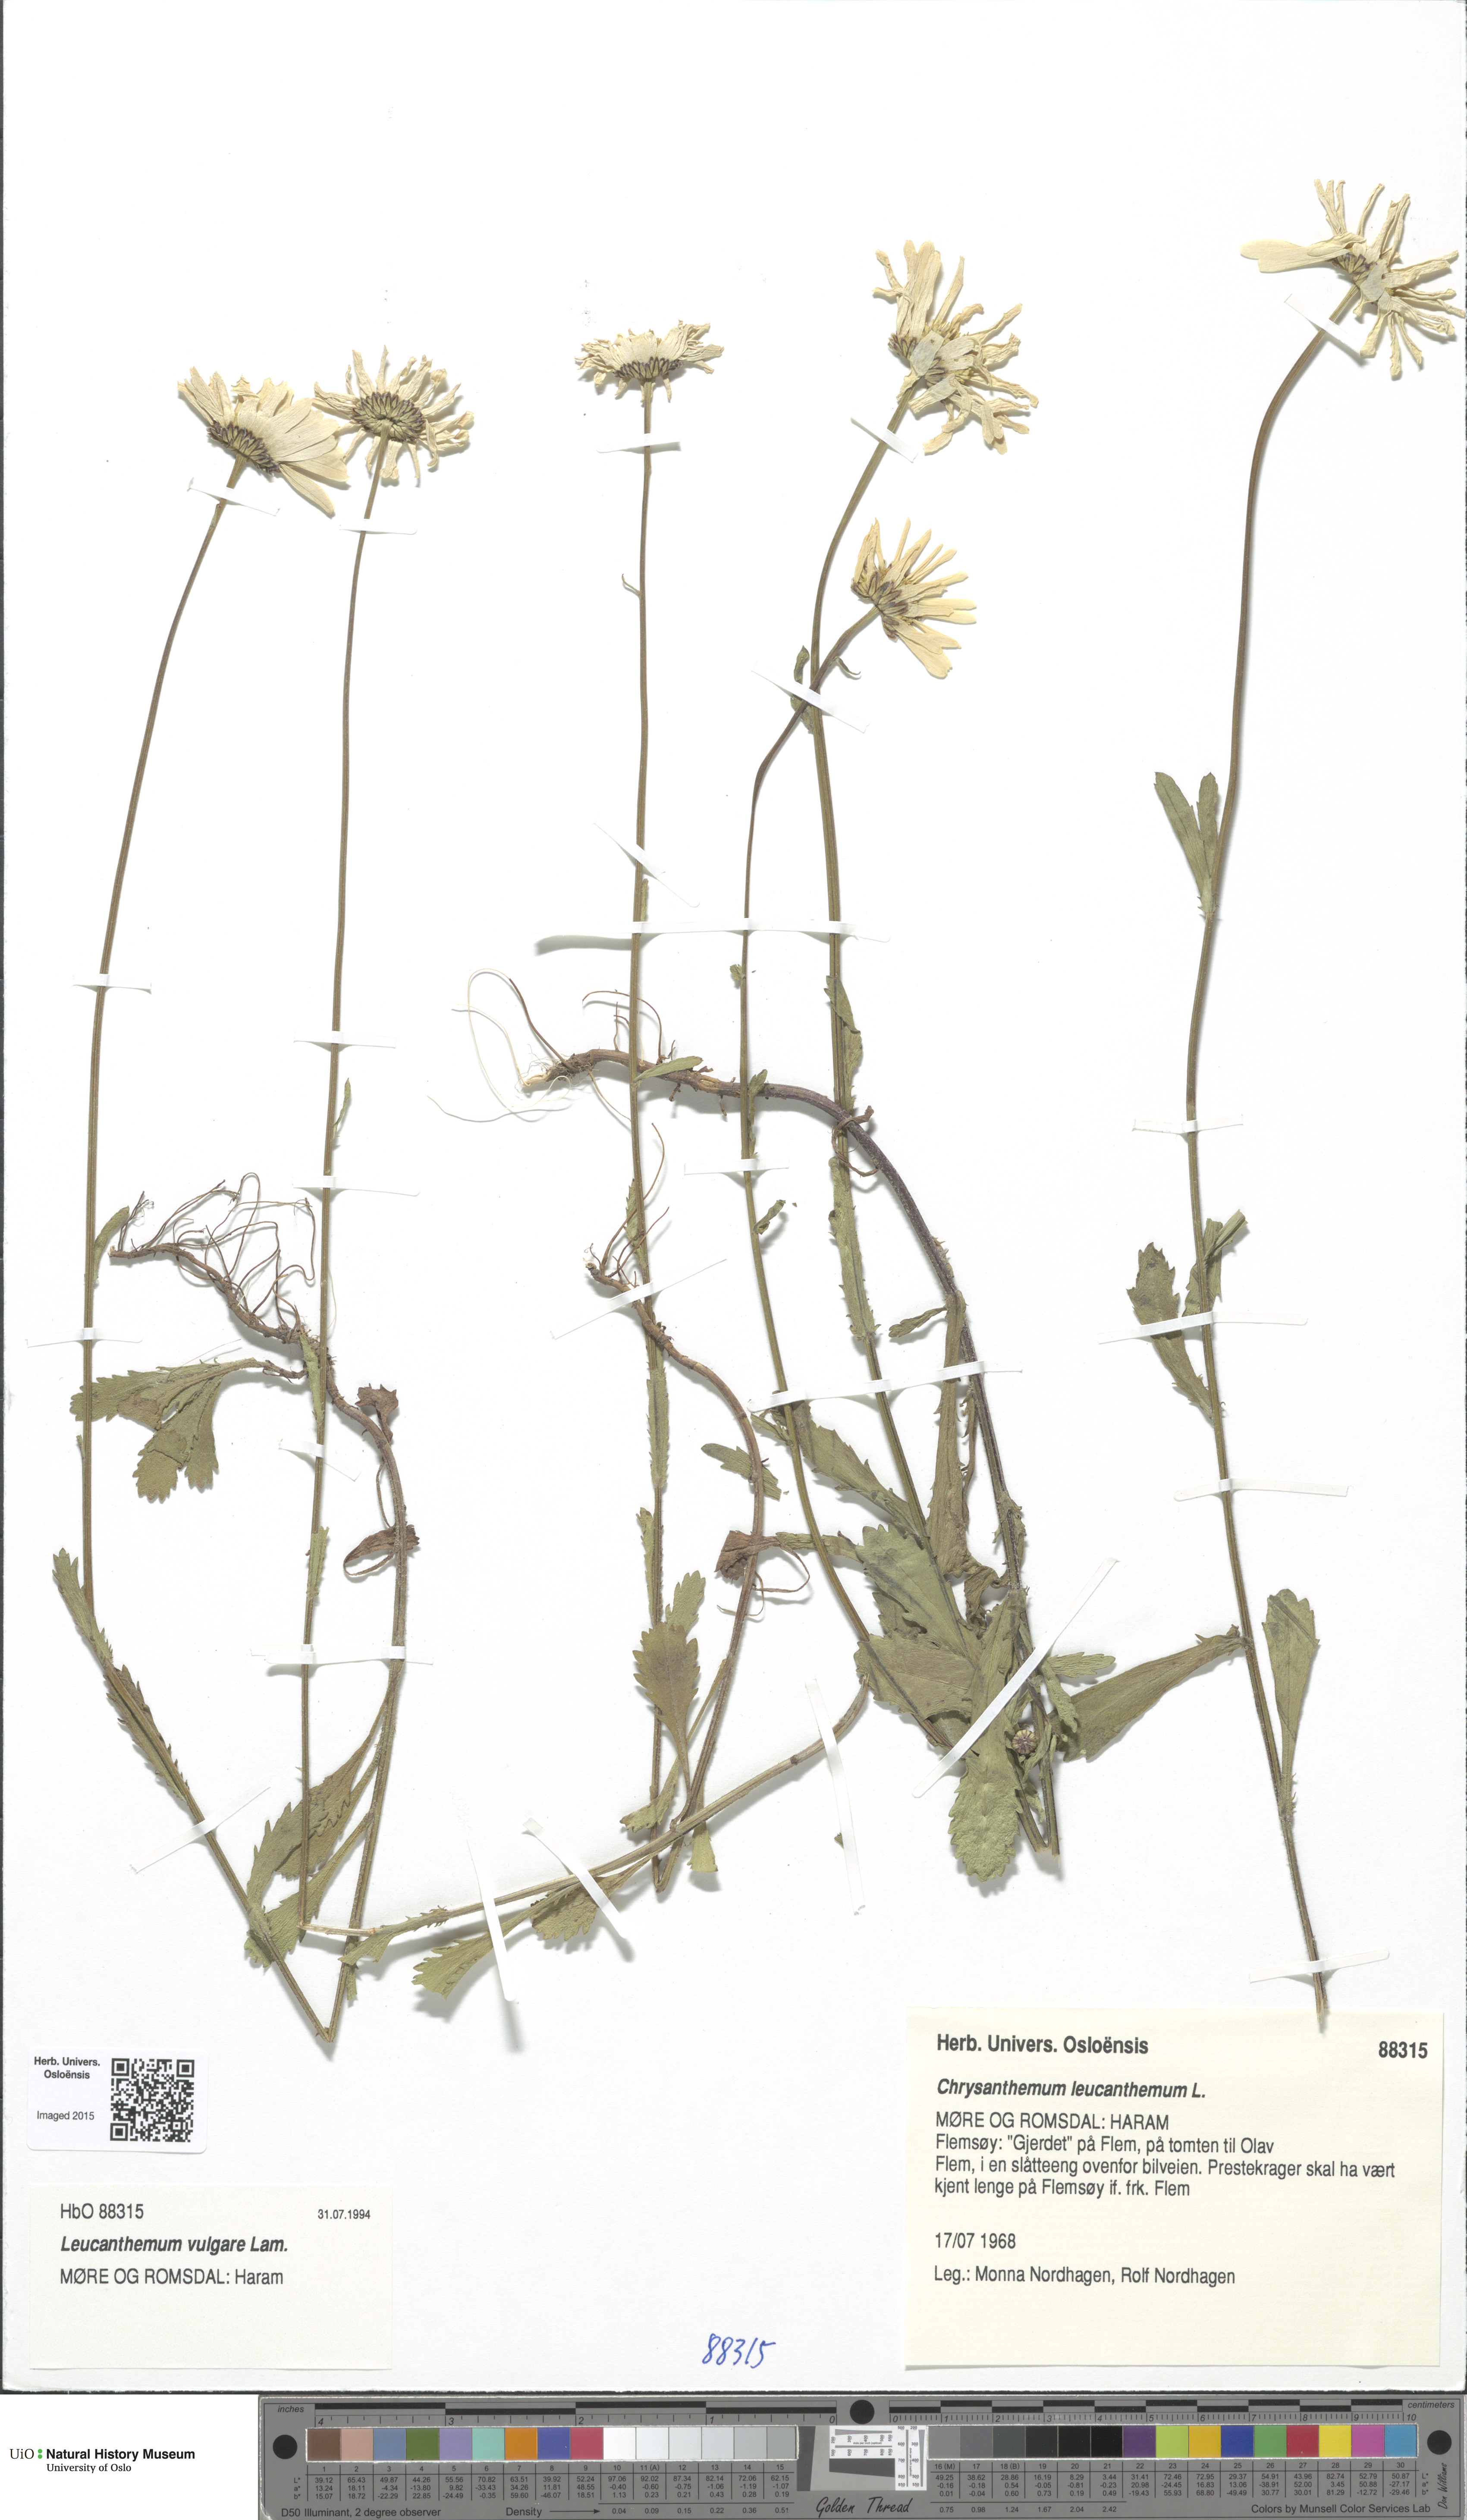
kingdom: Plantae
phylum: Tracheophyta
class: Magnoliopsida
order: Asterales
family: Asteraceae
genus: Leucanthemum
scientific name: Leucanthemum vulgare
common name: Oxeye daisy
